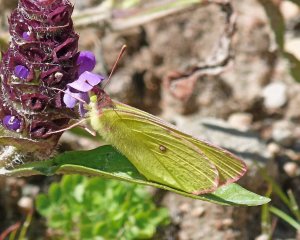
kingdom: Animalia
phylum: Arthropoda
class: Insecta
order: Lepidoptera
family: Pieridae
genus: Colias
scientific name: Colias interior
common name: Pink-edged Sulphur
